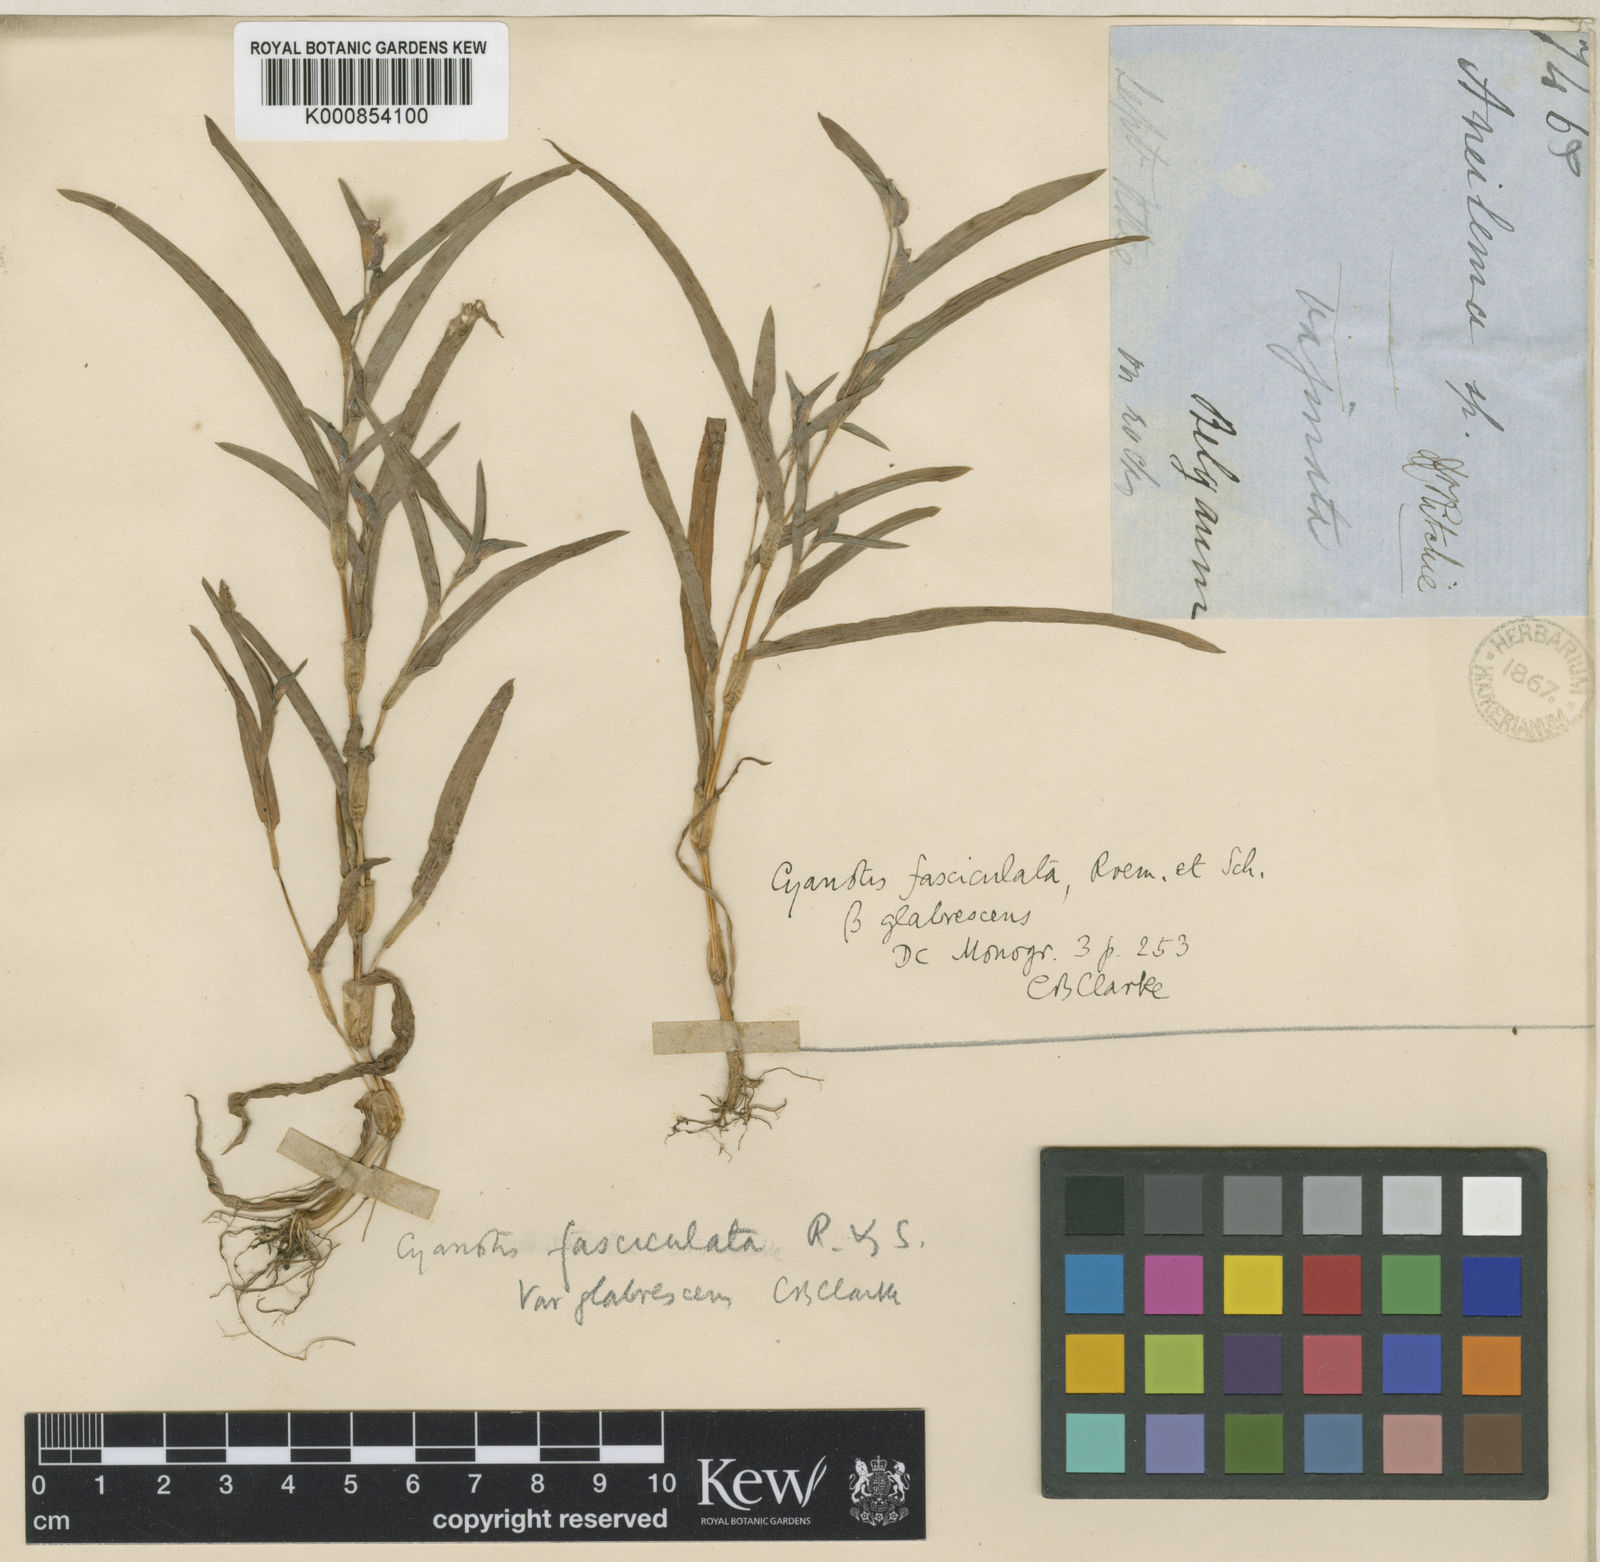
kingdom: Plantae
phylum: Tracheophyta
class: Liliopsida
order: Commelinales
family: Commelinaceae
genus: Cyanotis
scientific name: Cyanotis karliana
